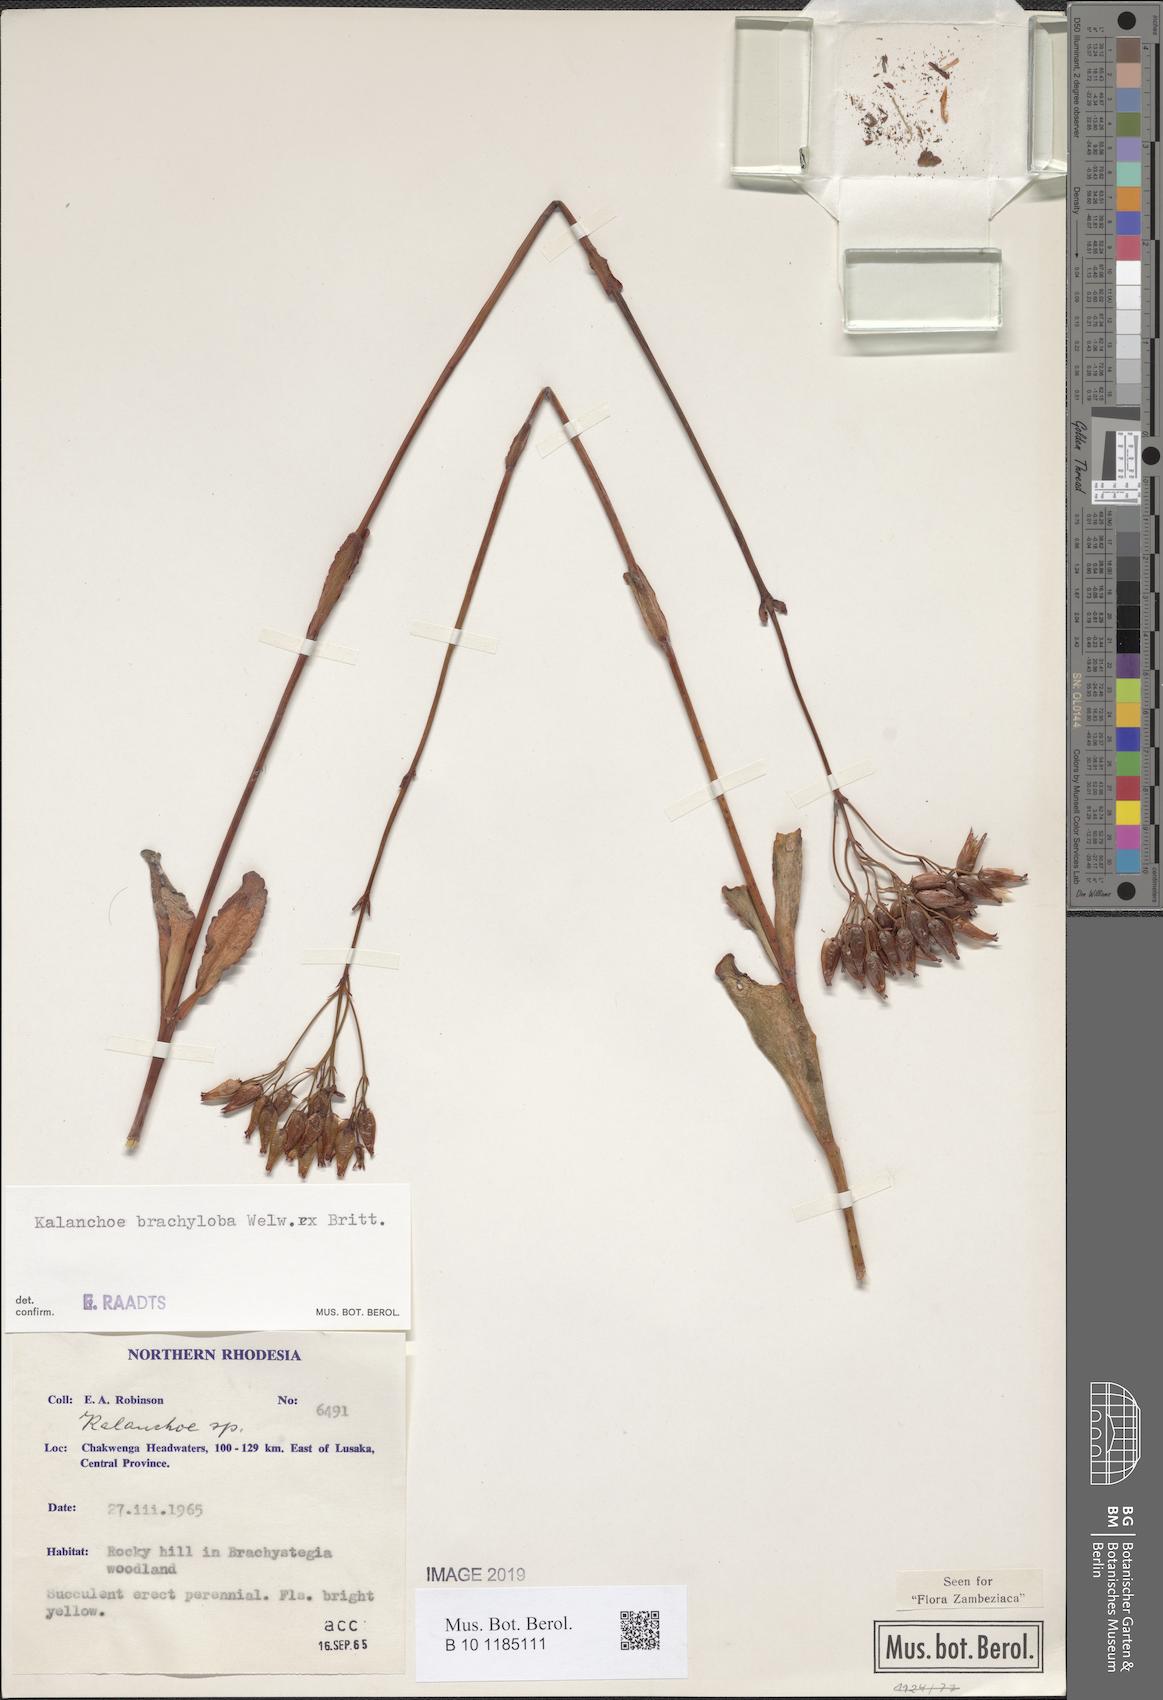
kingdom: Plantae
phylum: Tracheophyta
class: Magnoliopsida
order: Saxifragales
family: Crassulaceae
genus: Kalanchoe
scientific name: Kalanchoe brachyloba
